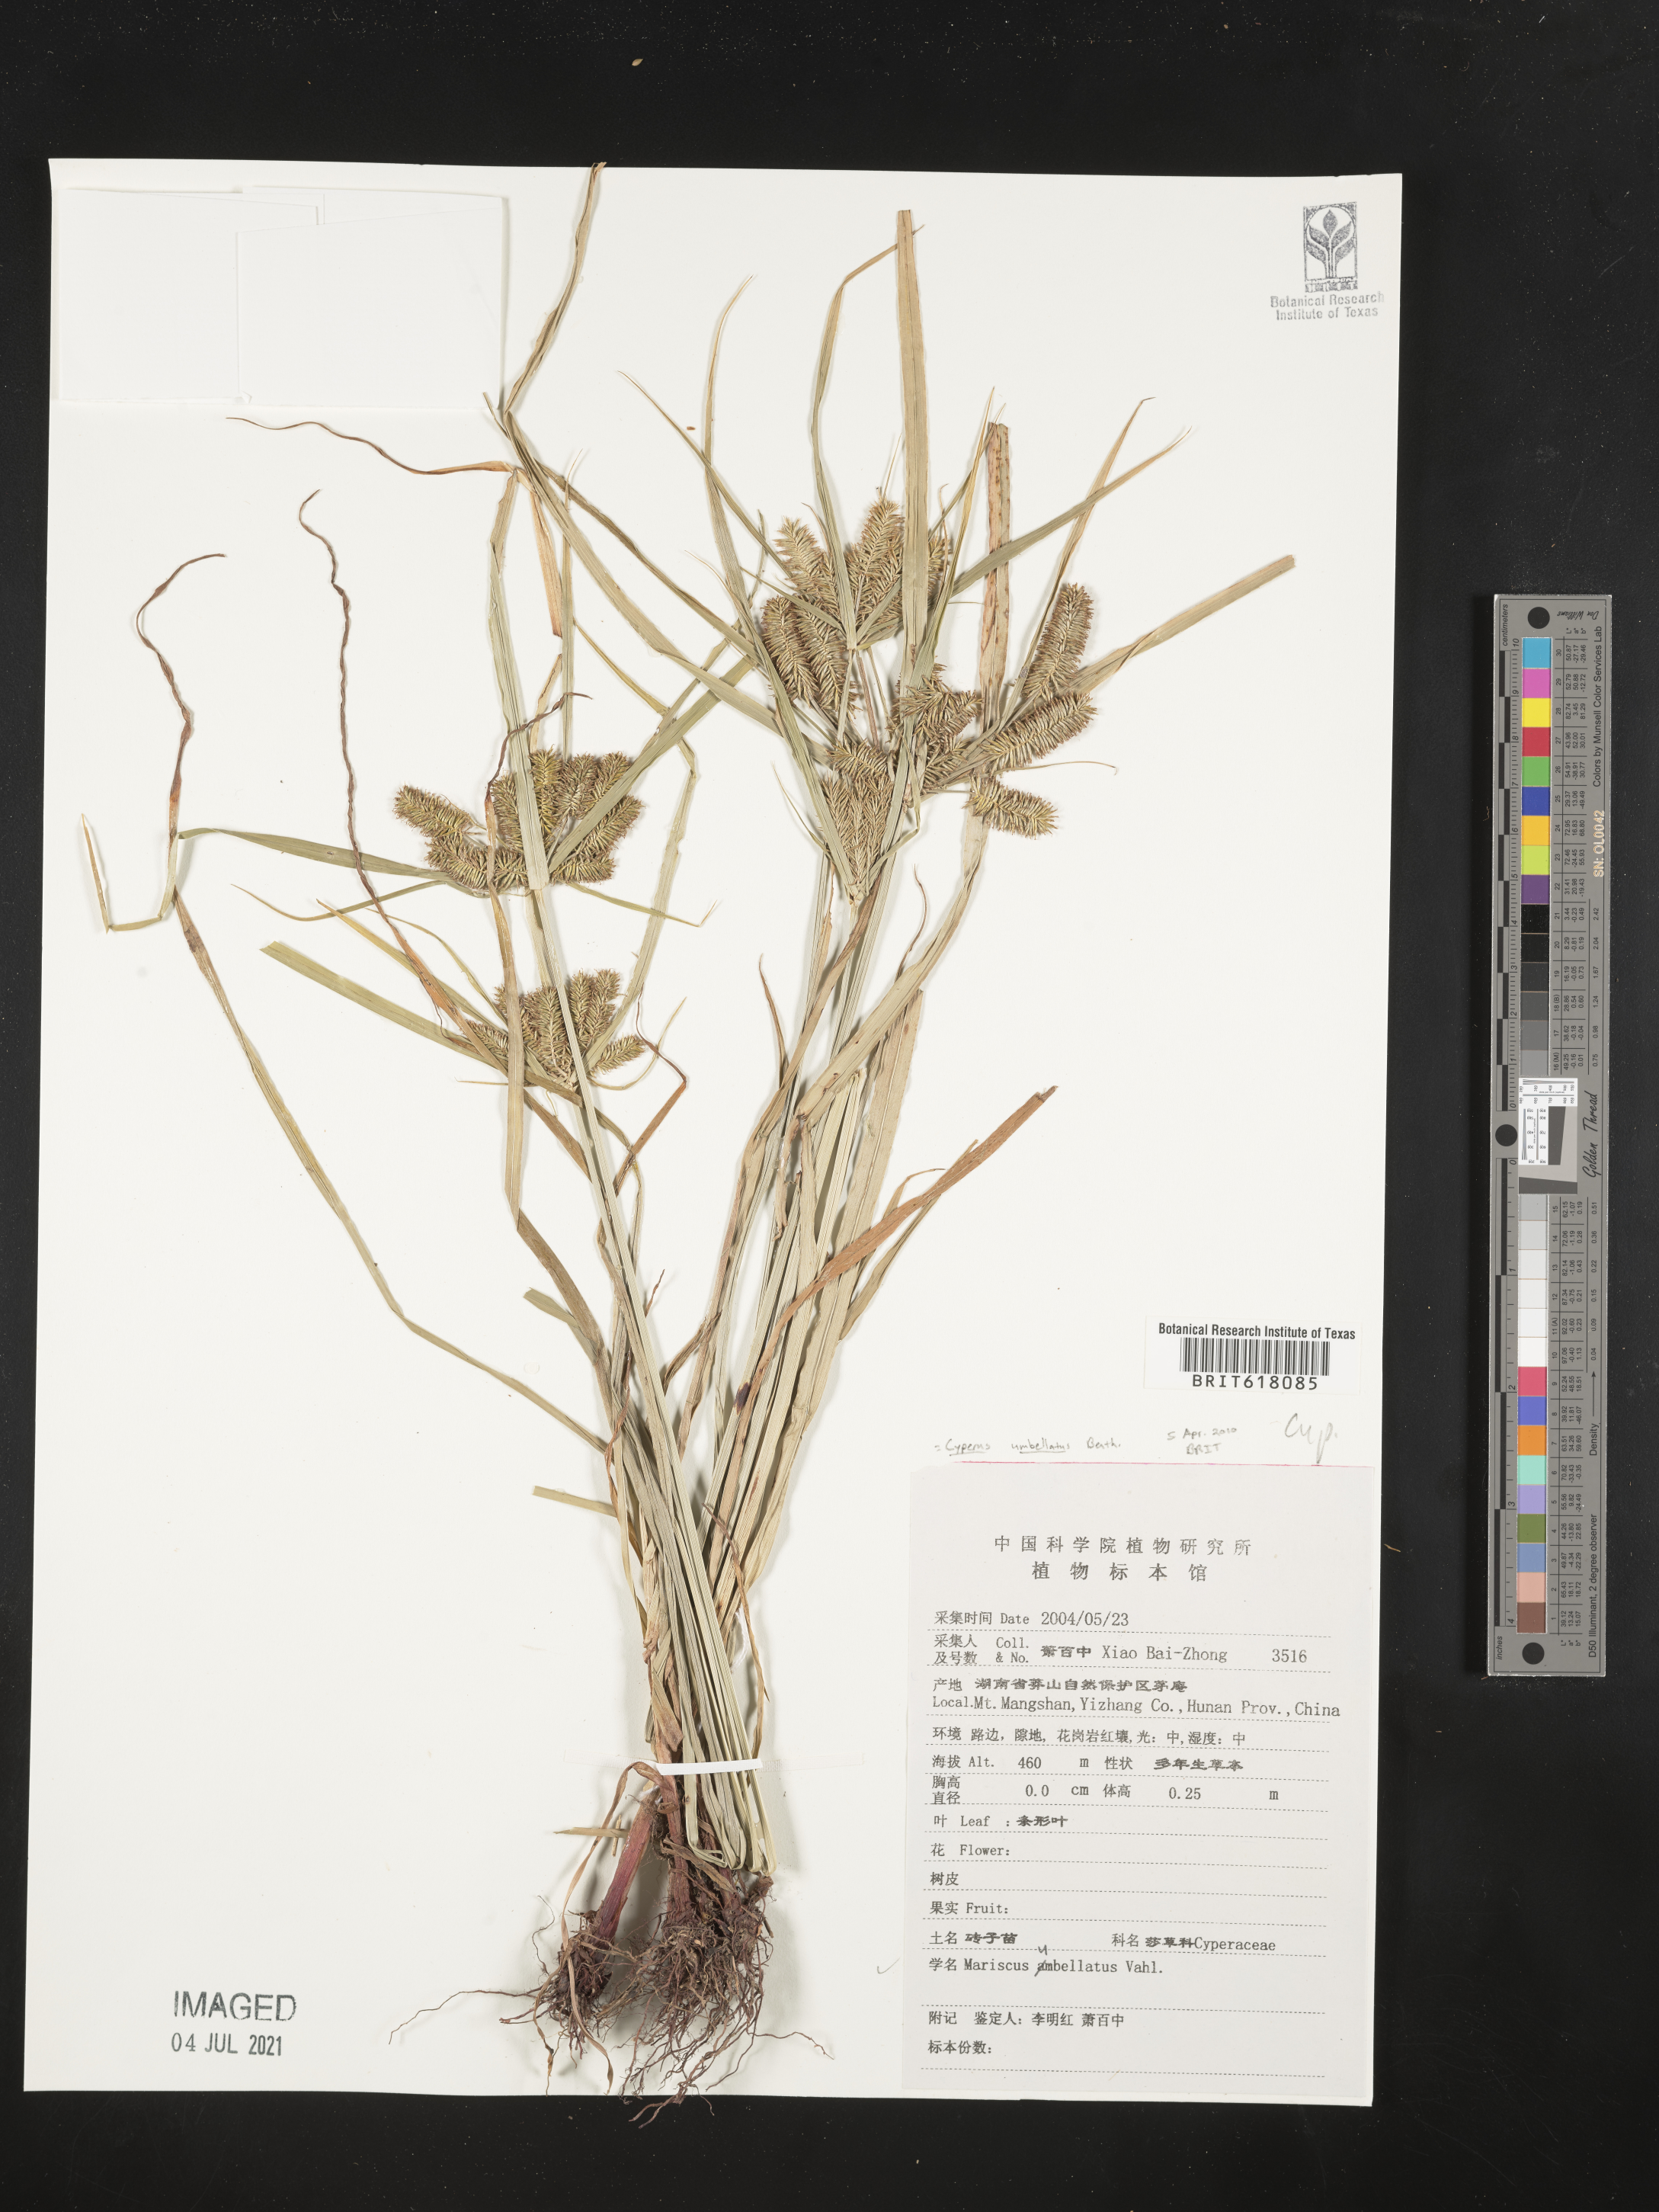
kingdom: Plantae
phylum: Tracheophyta
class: Liliopsida
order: Poales
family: Cyperaceae
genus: Cyperus
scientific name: Cyperus appendiculatus
